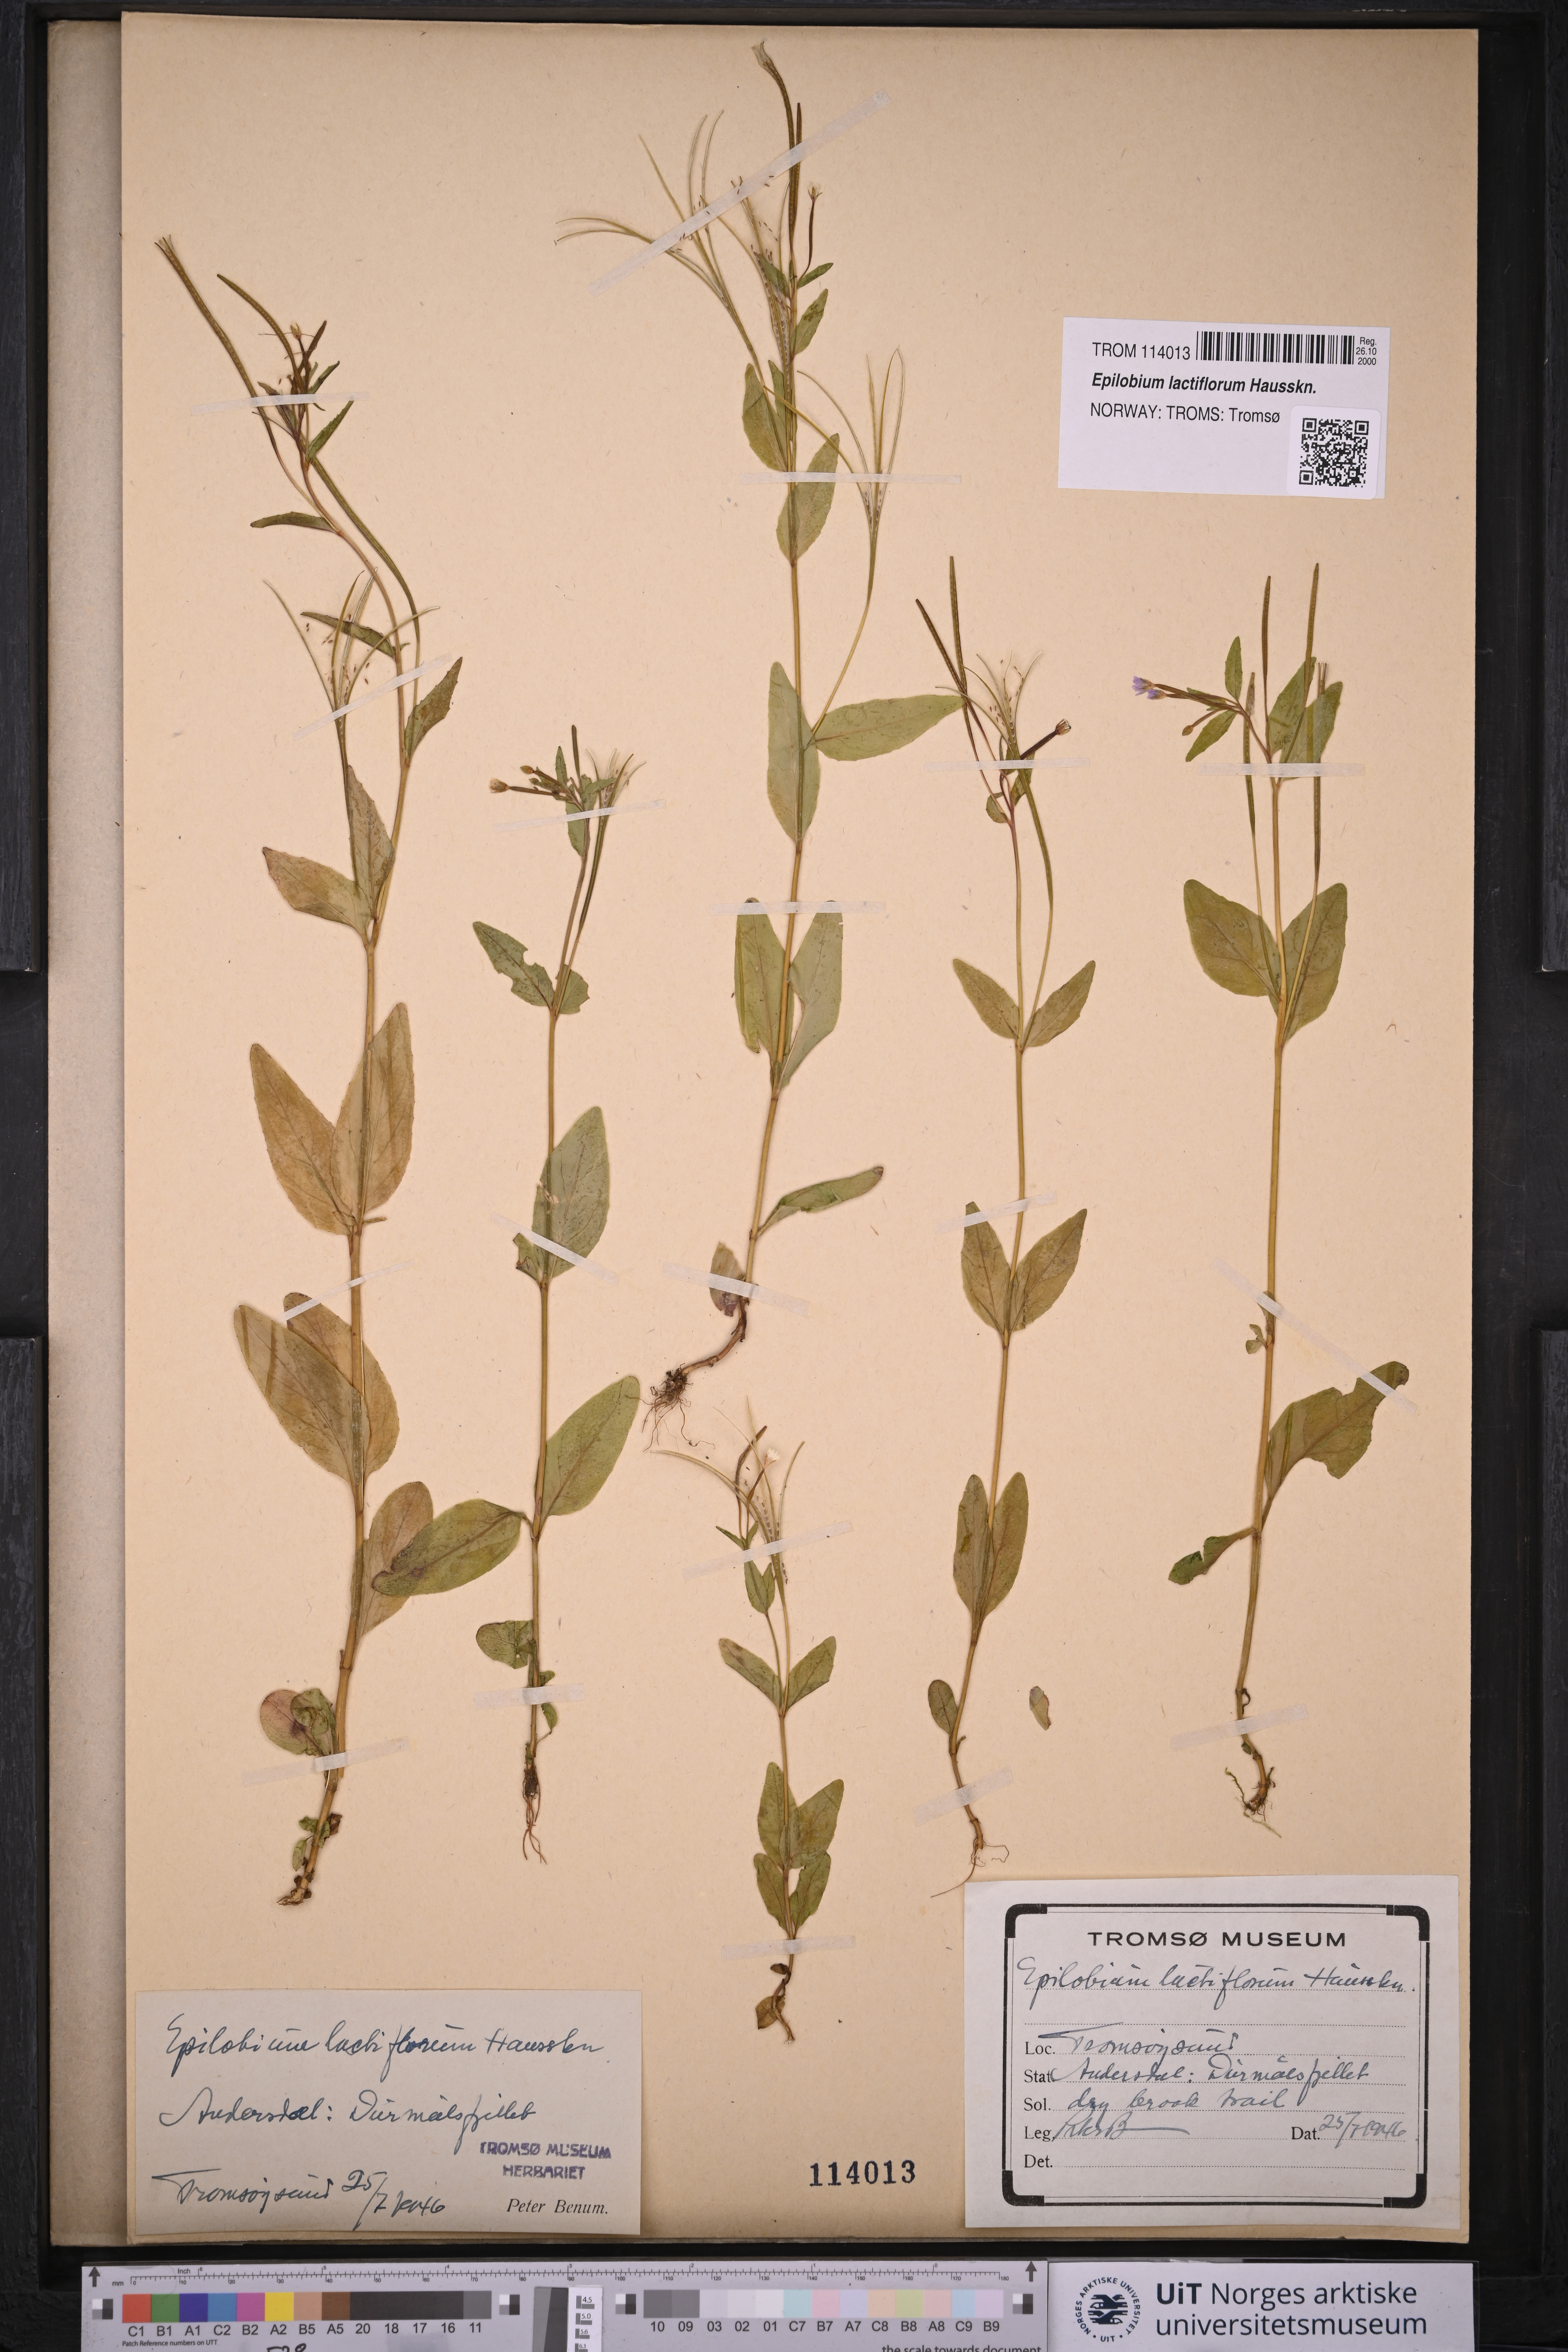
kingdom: Plantae
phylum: Tracheophyta
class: Magnoliopsida
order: Myrtales
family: Onagraceae
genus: Epilobium
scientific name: Epilobium lactiflorum
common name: Milkflower willowherb
